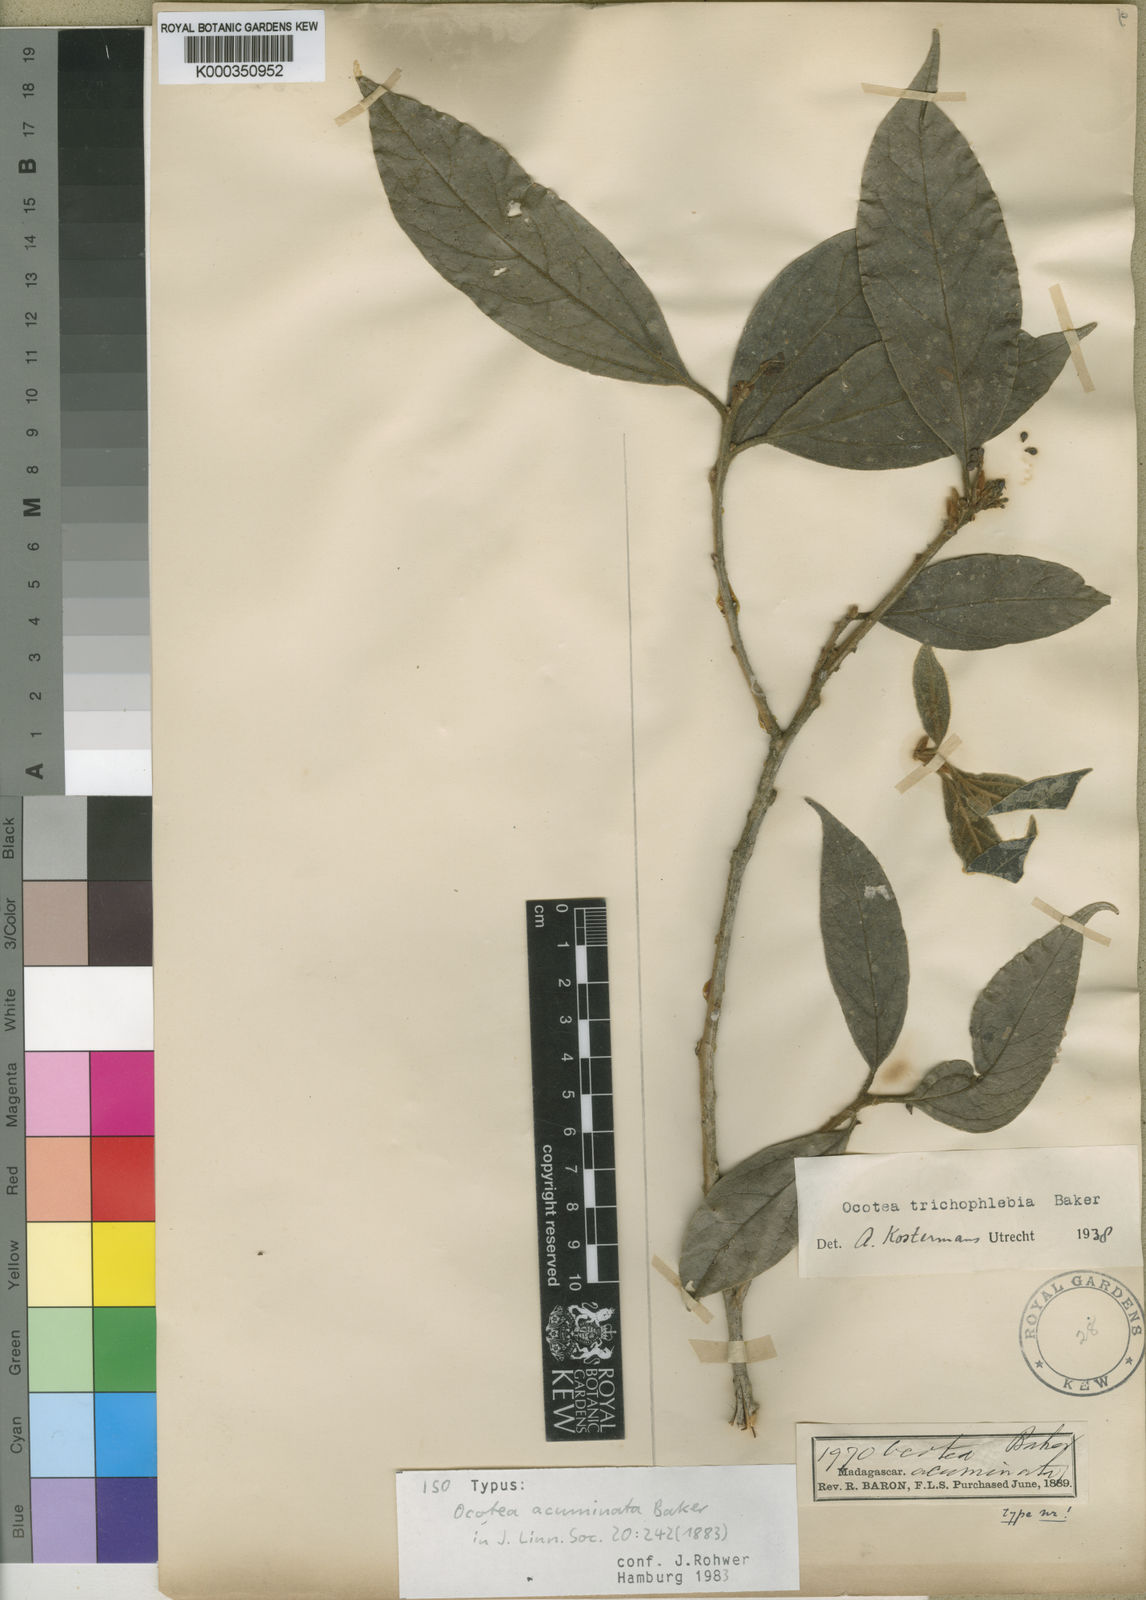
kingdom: Plantae
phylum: Tracheophyta
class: Magnoliopsida
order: Laurales
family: Lauraceae
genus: Mespilodaphne
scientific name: Mespilodaphne trichophlebia
